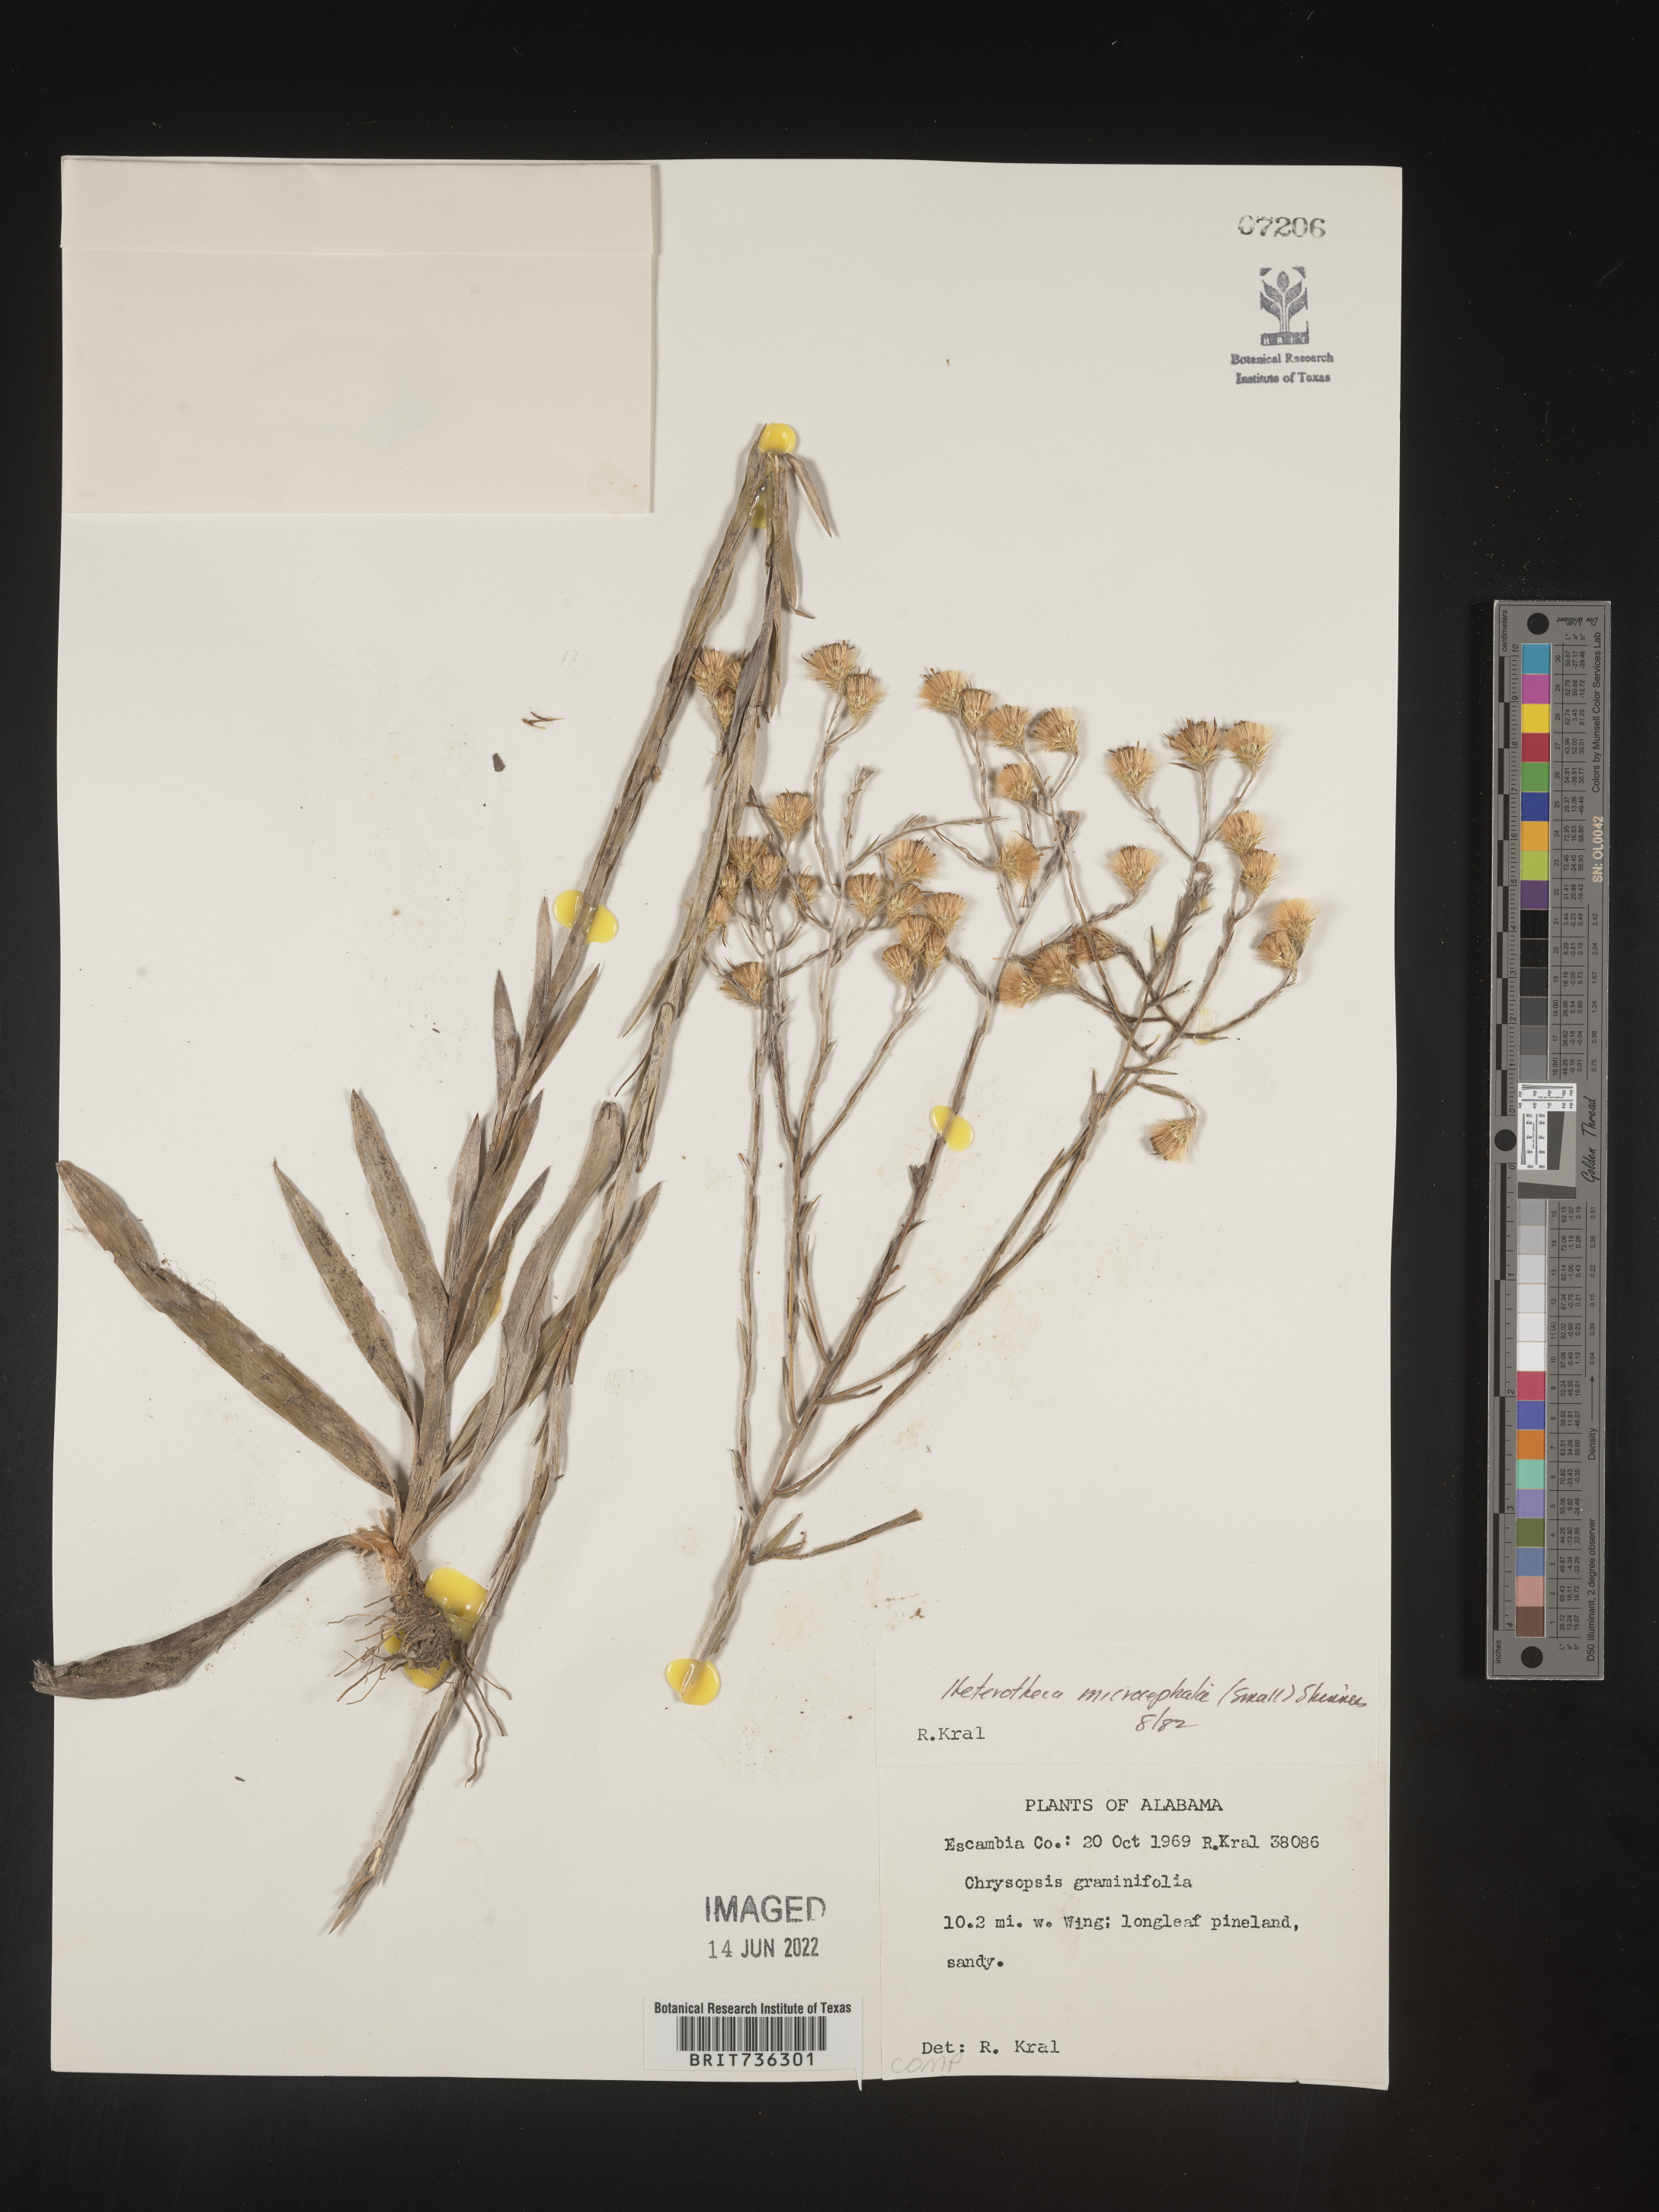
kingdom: Plantae
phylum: Tracheophyta
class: Magnoliopsida
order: Asterales
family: Asteraceae
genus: Pityopsis
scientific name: Pityopsis microcephala
